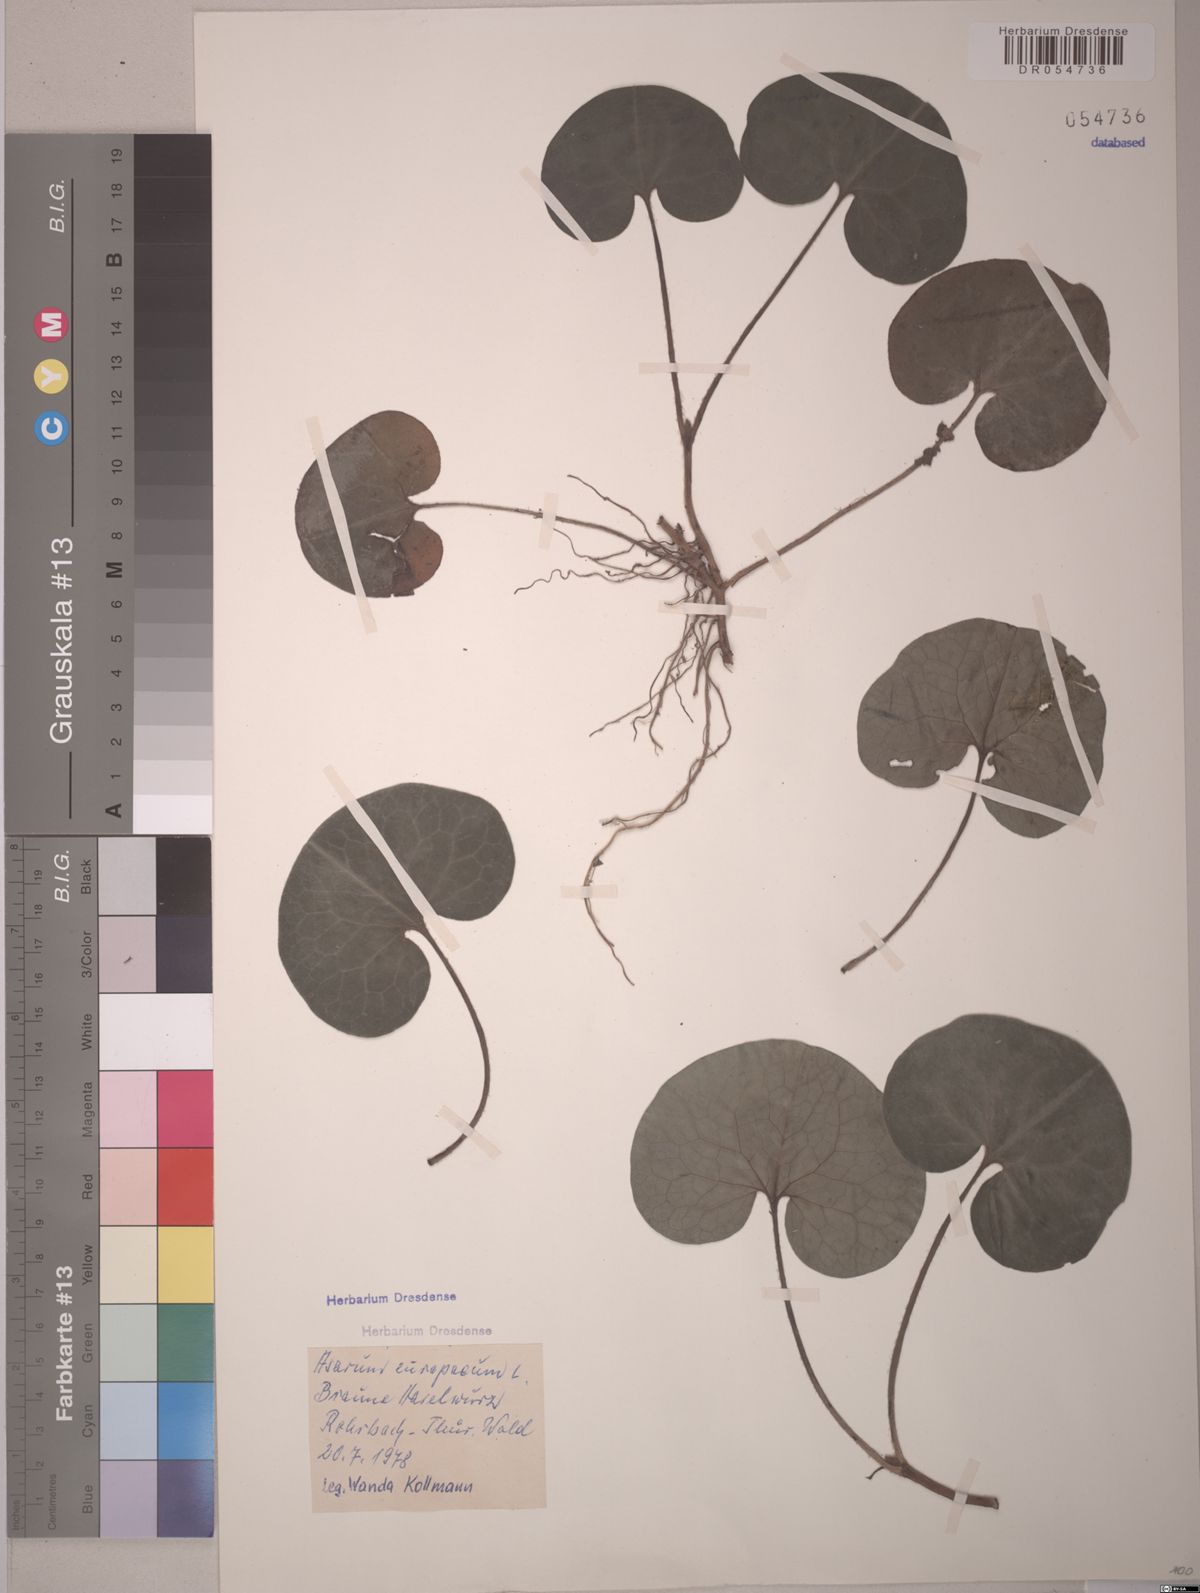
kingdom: Plantae
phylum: Tracheophyta
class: Magnoliopsida
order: Piperales
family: Aristolochiaceae
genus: Asarum
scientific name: Asarum europaeum
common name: Asarabacca
